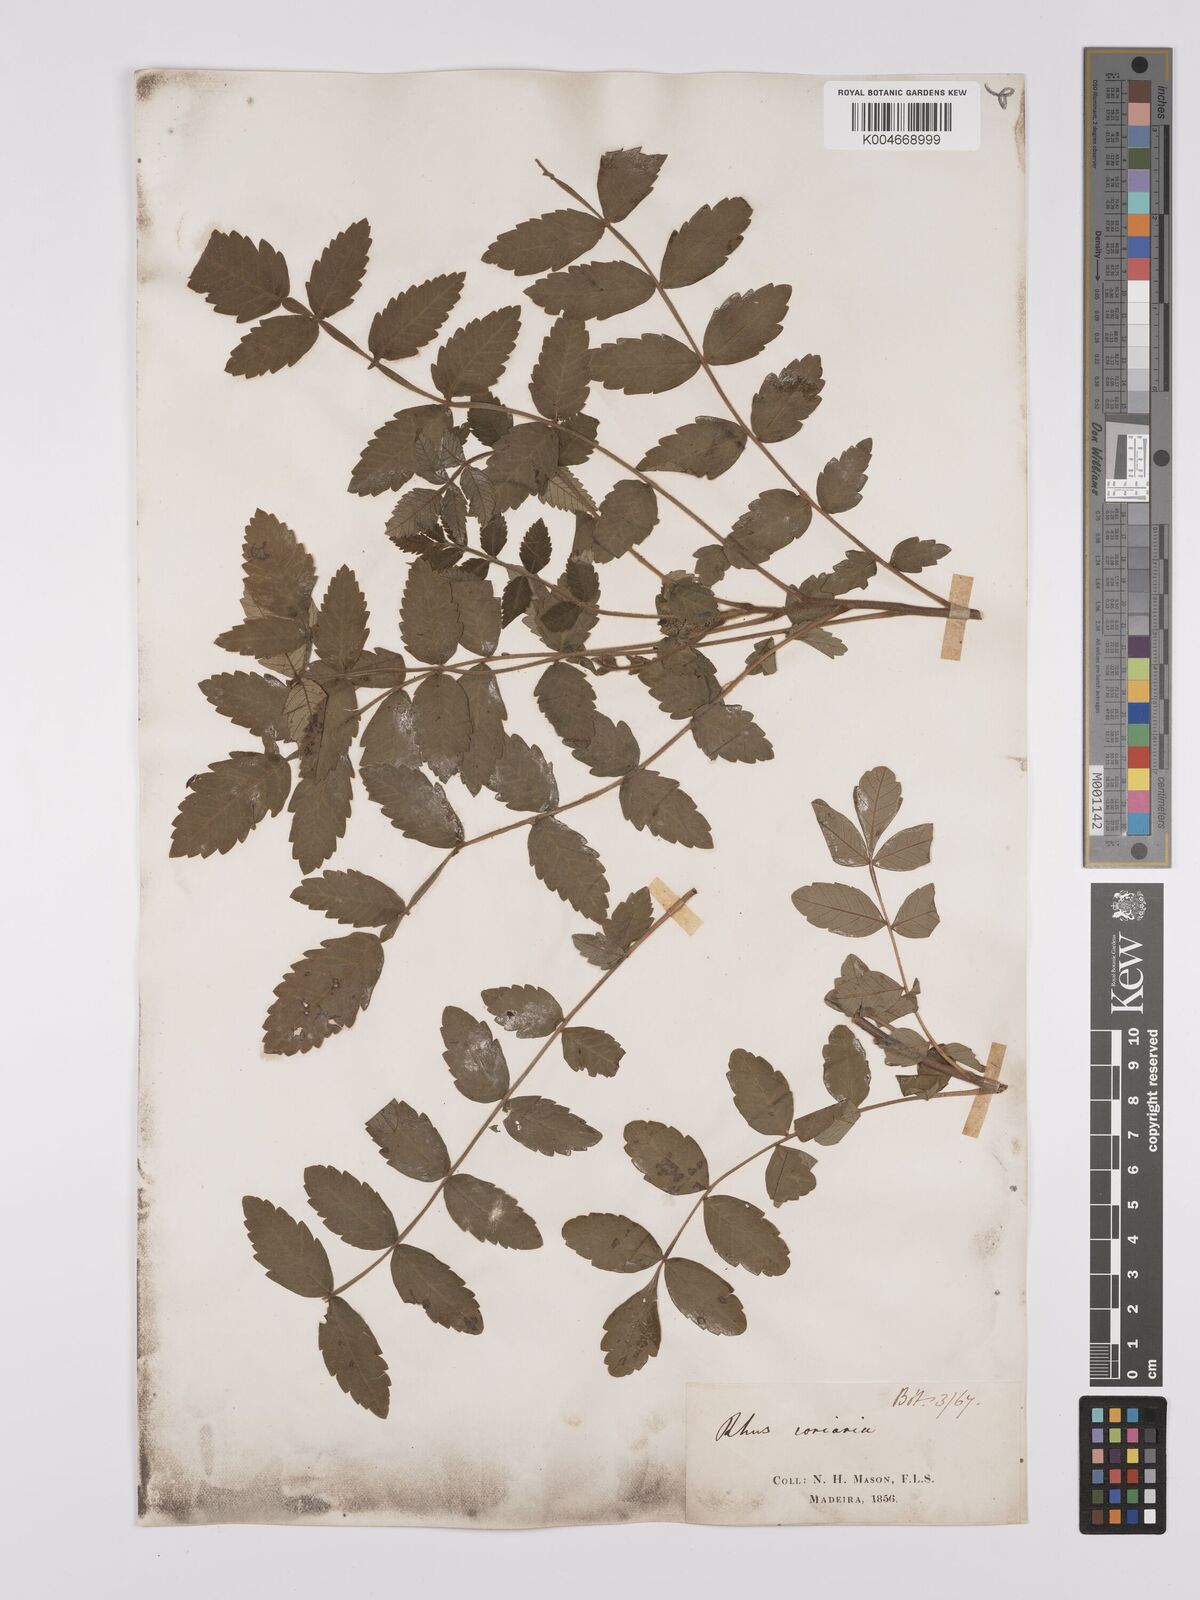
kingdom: Plantae
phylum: Tracheophyta
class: Magnoliopsida
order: Sapindales
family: Anacardiaceae
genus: Rhus
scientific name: Rhus coriaria
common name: Tanner's sumach
